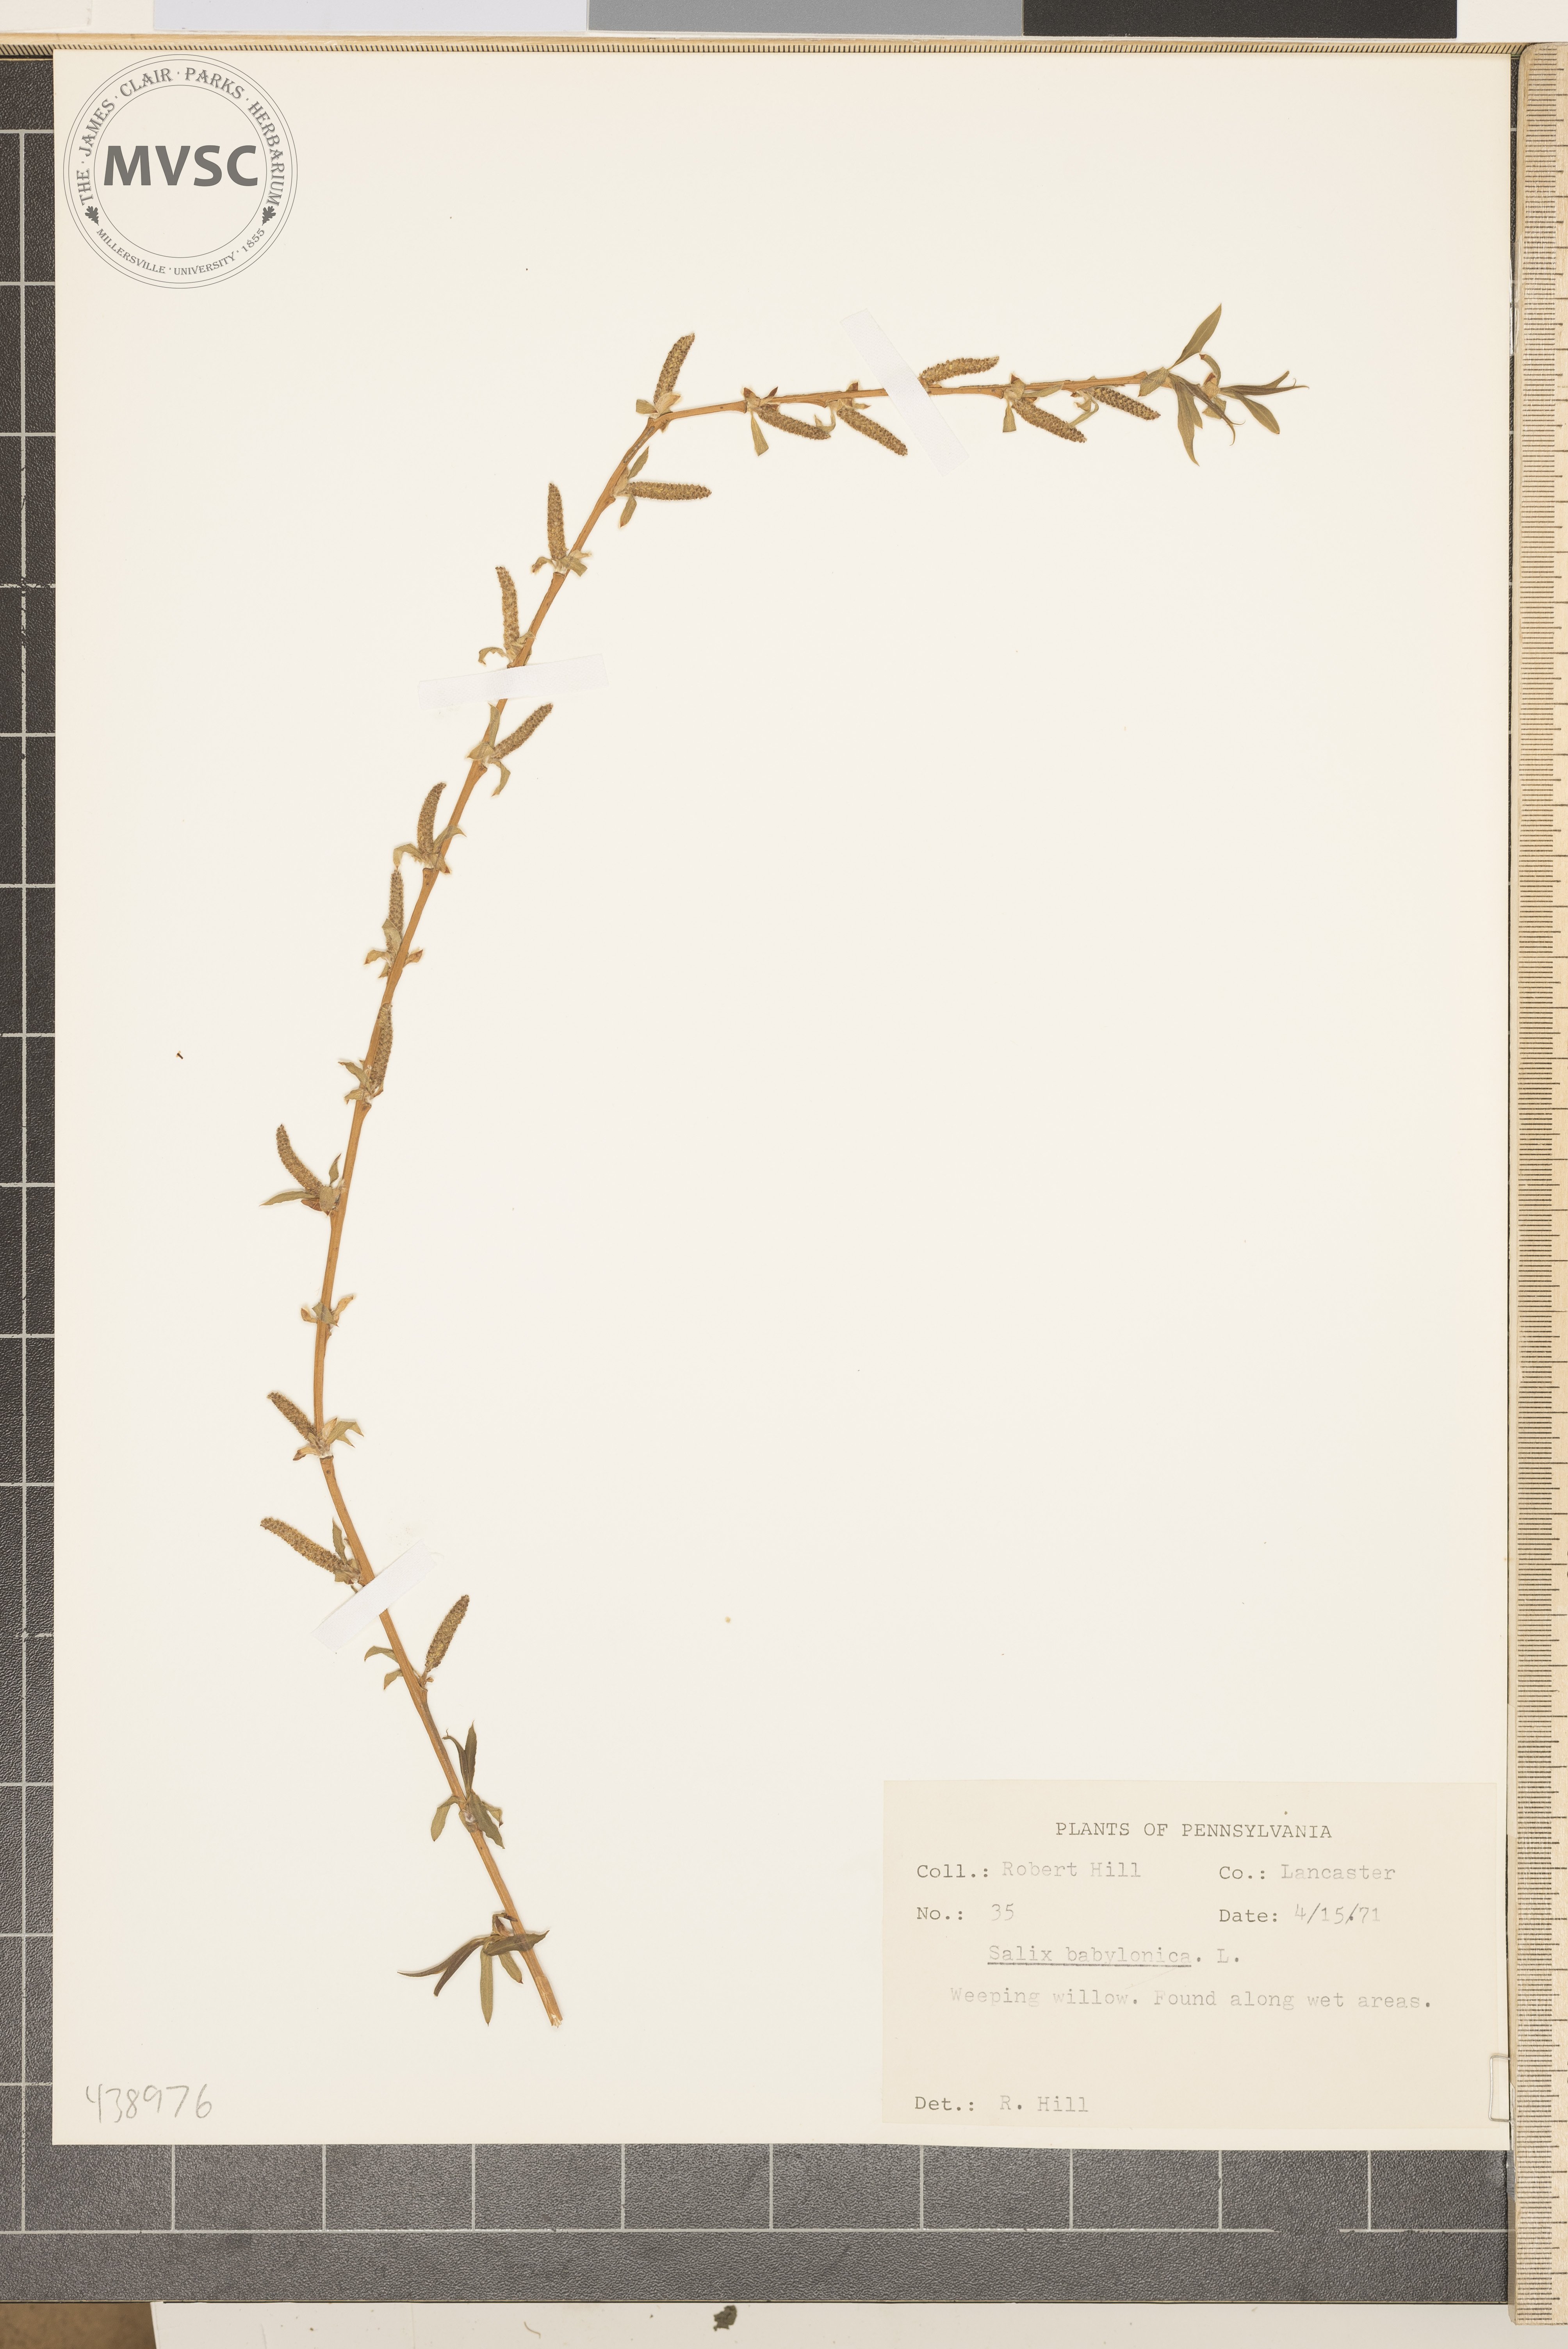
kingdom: Plantae
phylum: Tracheophyta
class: Magnoliopsida
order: Malpighiales
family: Salicaceae
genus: Salix
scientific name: Salix babylonica
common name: Weeping willow
